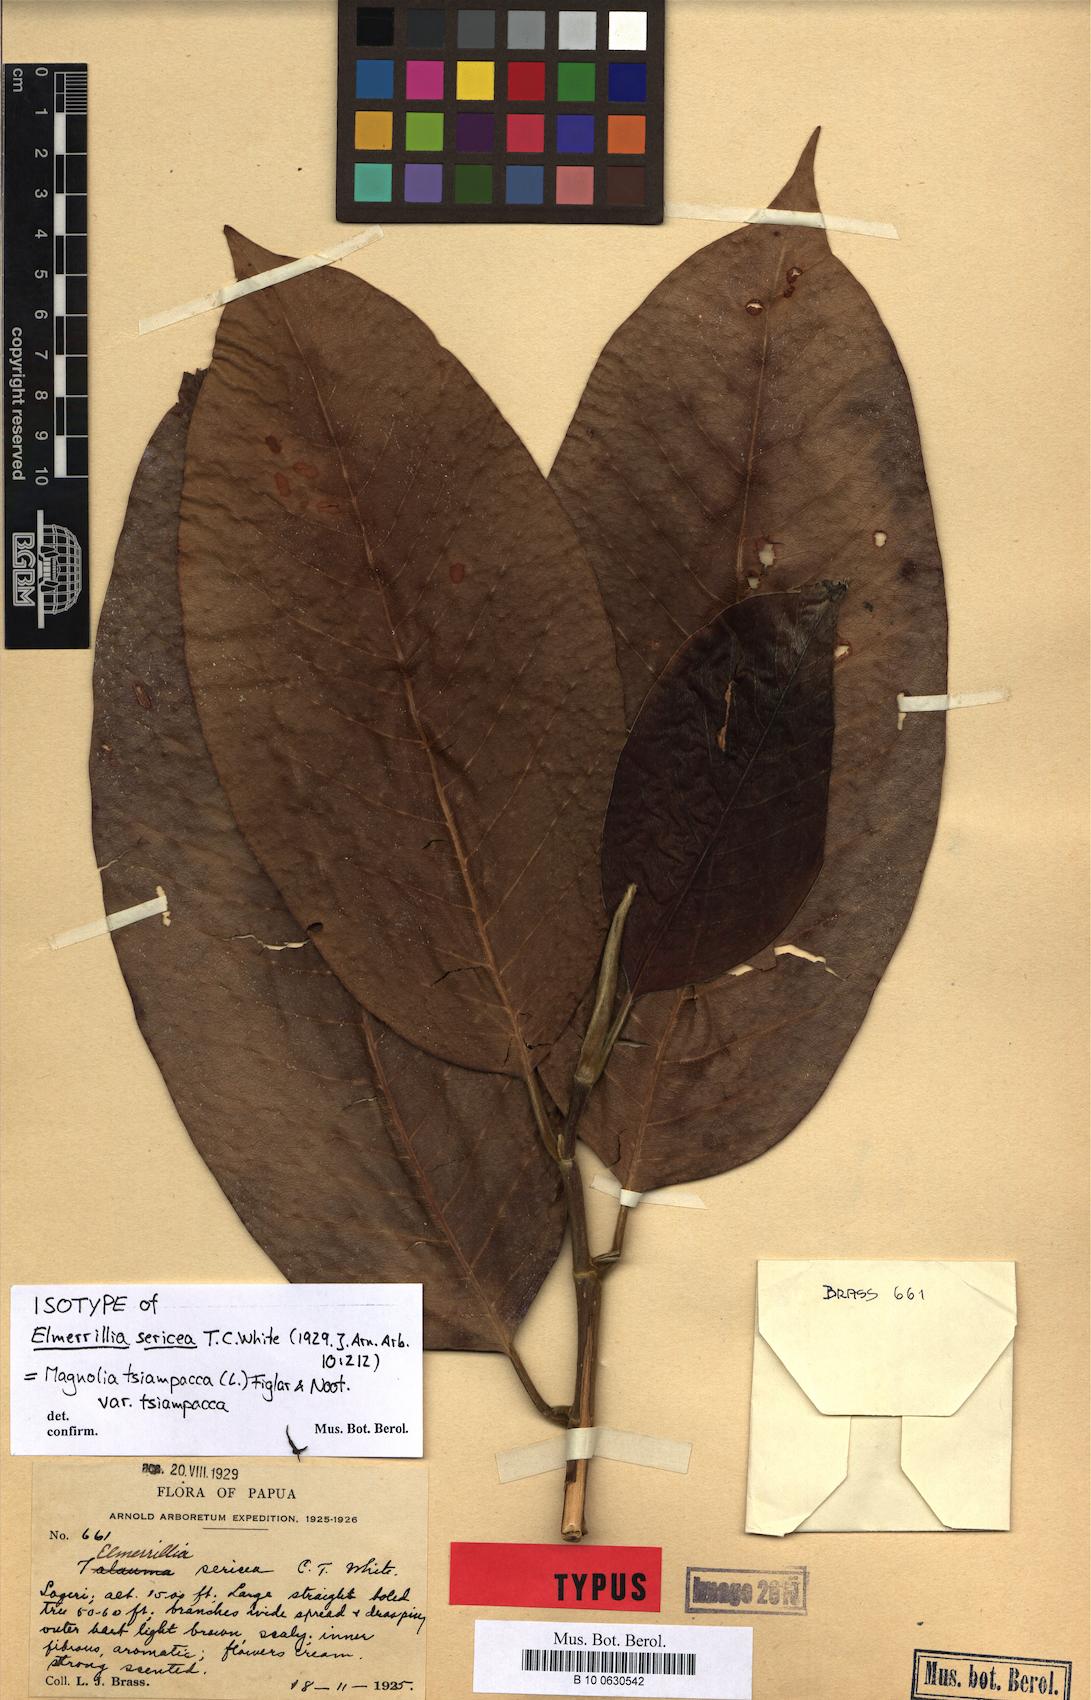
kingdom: Plantae
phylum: Tracheophyta
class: Magnoliopsida
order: Magnoliales
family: Magnoliaceae
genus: Magnolia
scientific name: Magnolia tsiampacca
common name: Wau-beech
